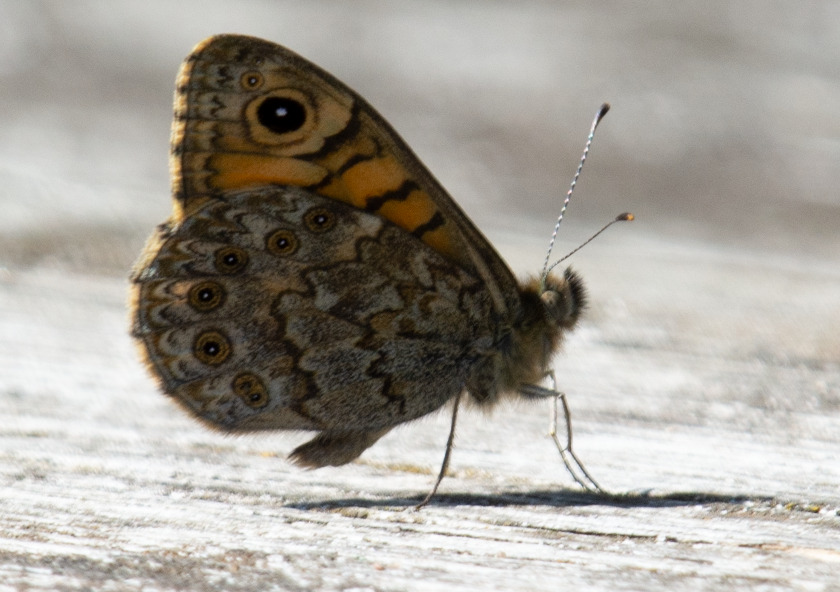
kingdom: Animalia
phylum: Arthropoda
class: Insecta
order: Lepidoptera
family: Nymphalidae
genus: Pararge
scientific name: Pararge Lasiommata megera
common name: Vejrandøje
